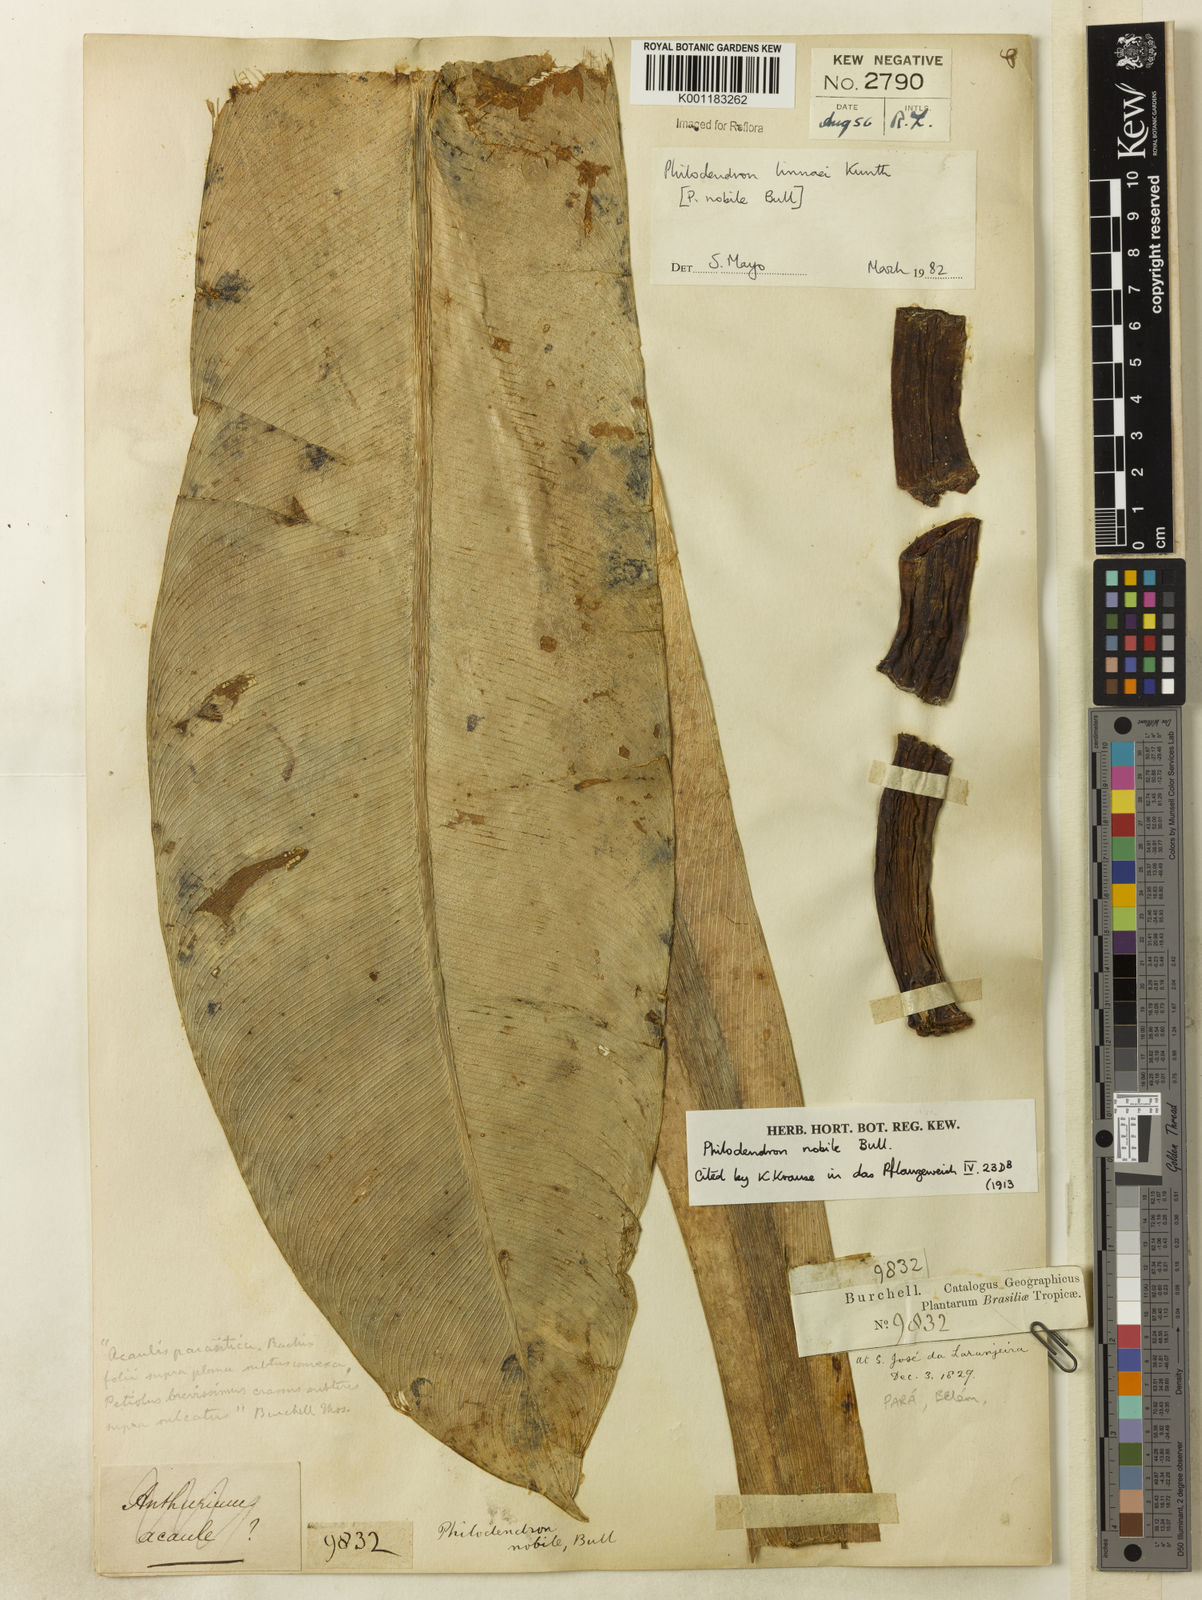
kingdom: Plantae
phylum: Tracheophyta
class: Liliopsida
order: Alismatales
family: Araceae
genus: Philodendron
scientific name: Philodendron linnaei
